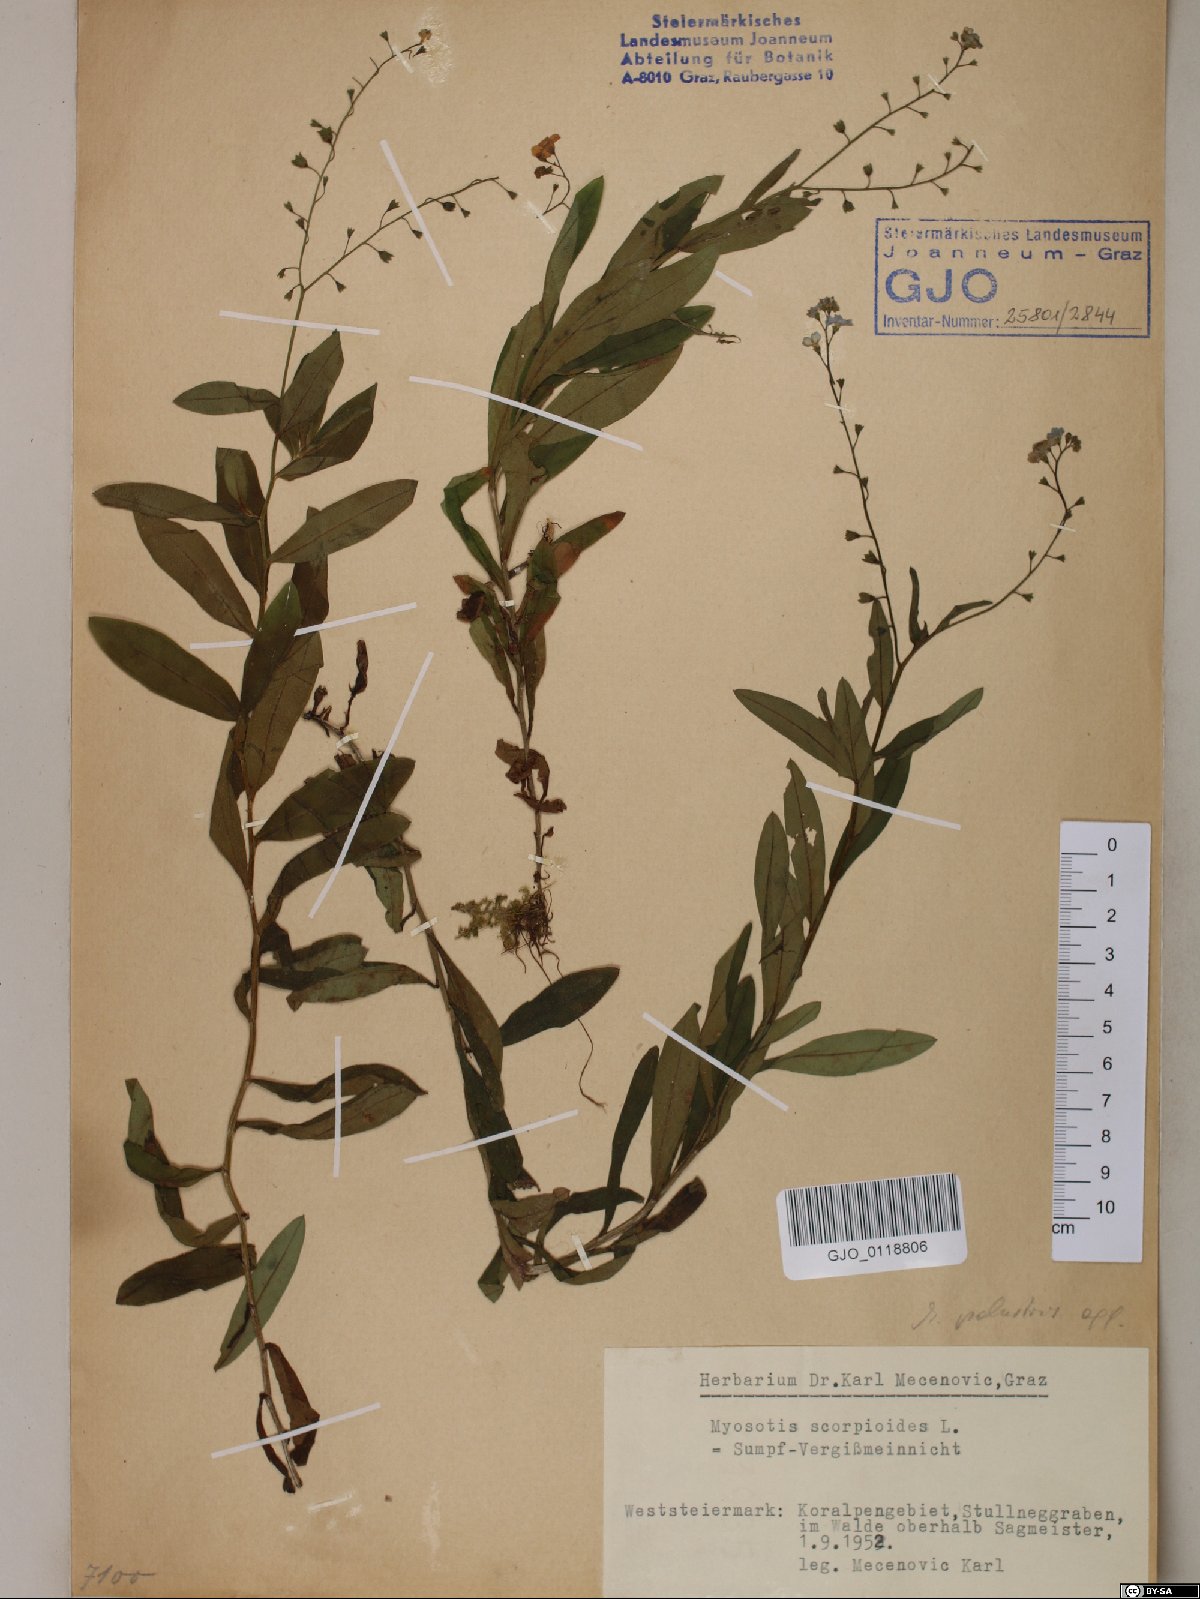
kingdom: Plantae
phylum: Tracheophyta
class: Magnoliopsida
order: Boraginales
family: Boraginaceae
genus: Myosotis
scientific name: Myosotis scorpioides
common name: Water forget-me-not
